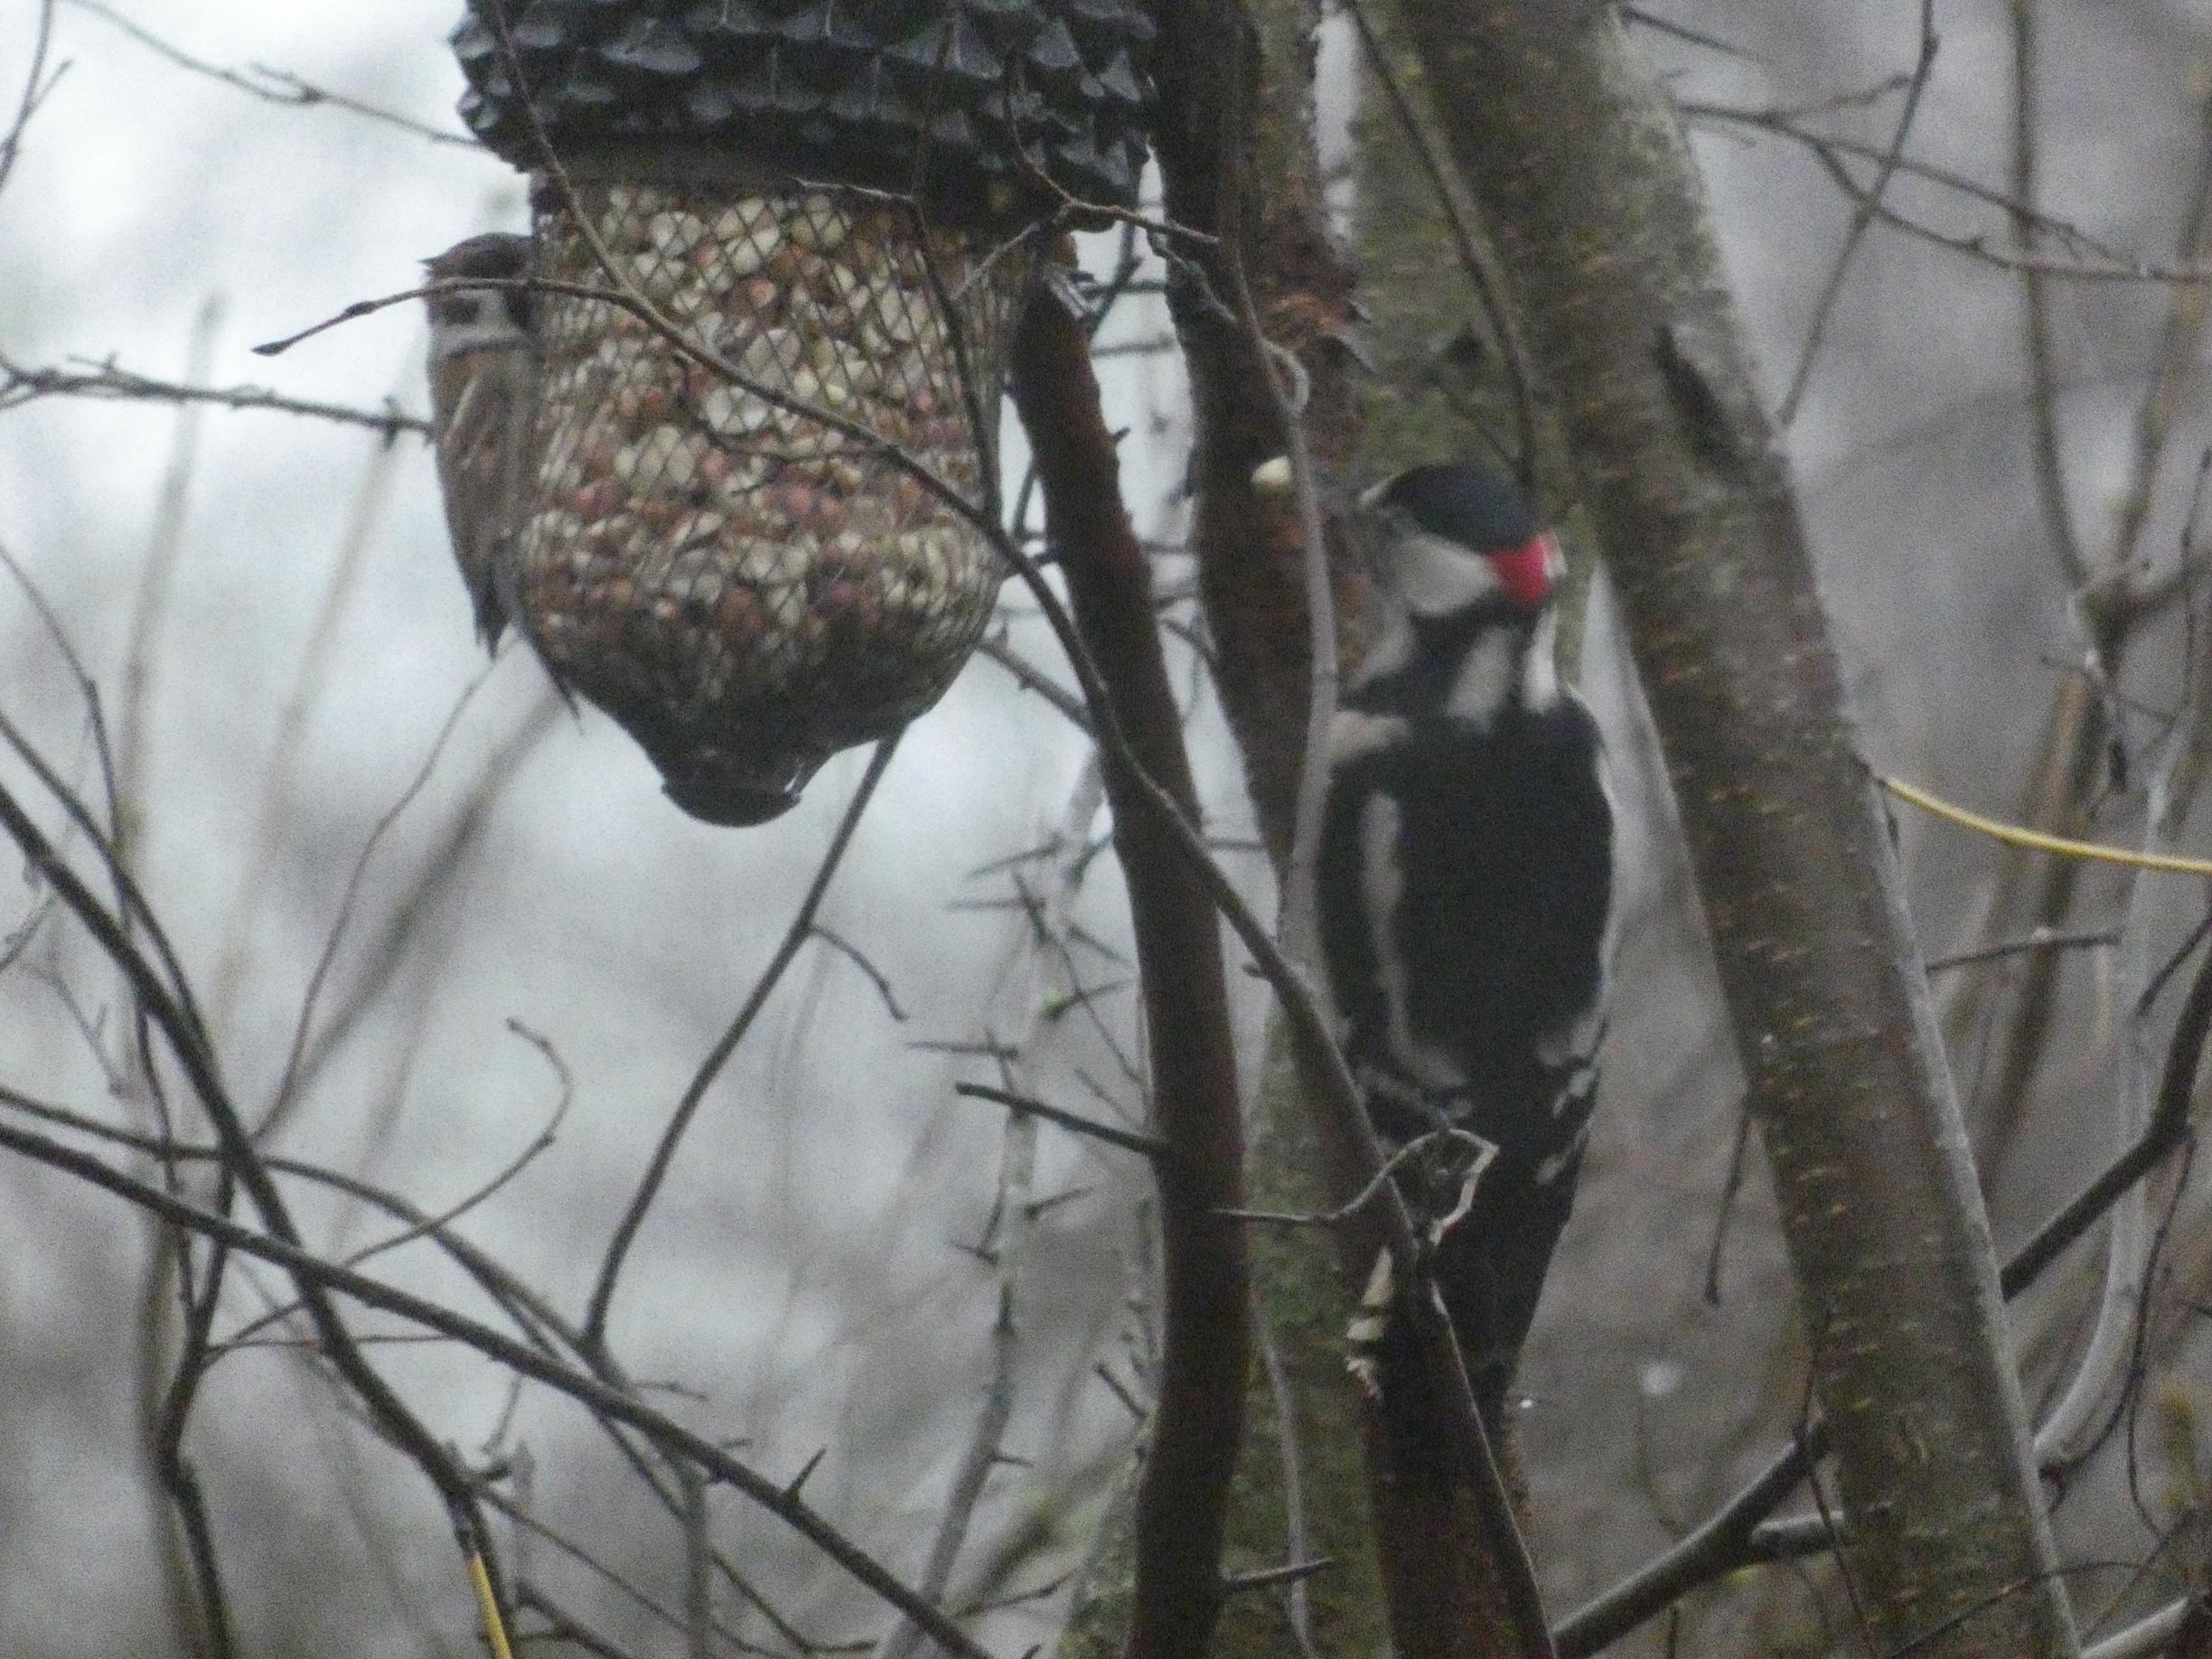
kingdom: Animalia
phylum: Chordata
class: Aves
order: Piciformes
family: Picidae
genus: Dendrocopos
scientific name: Dendrocopos major
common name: Stor flagspætte
